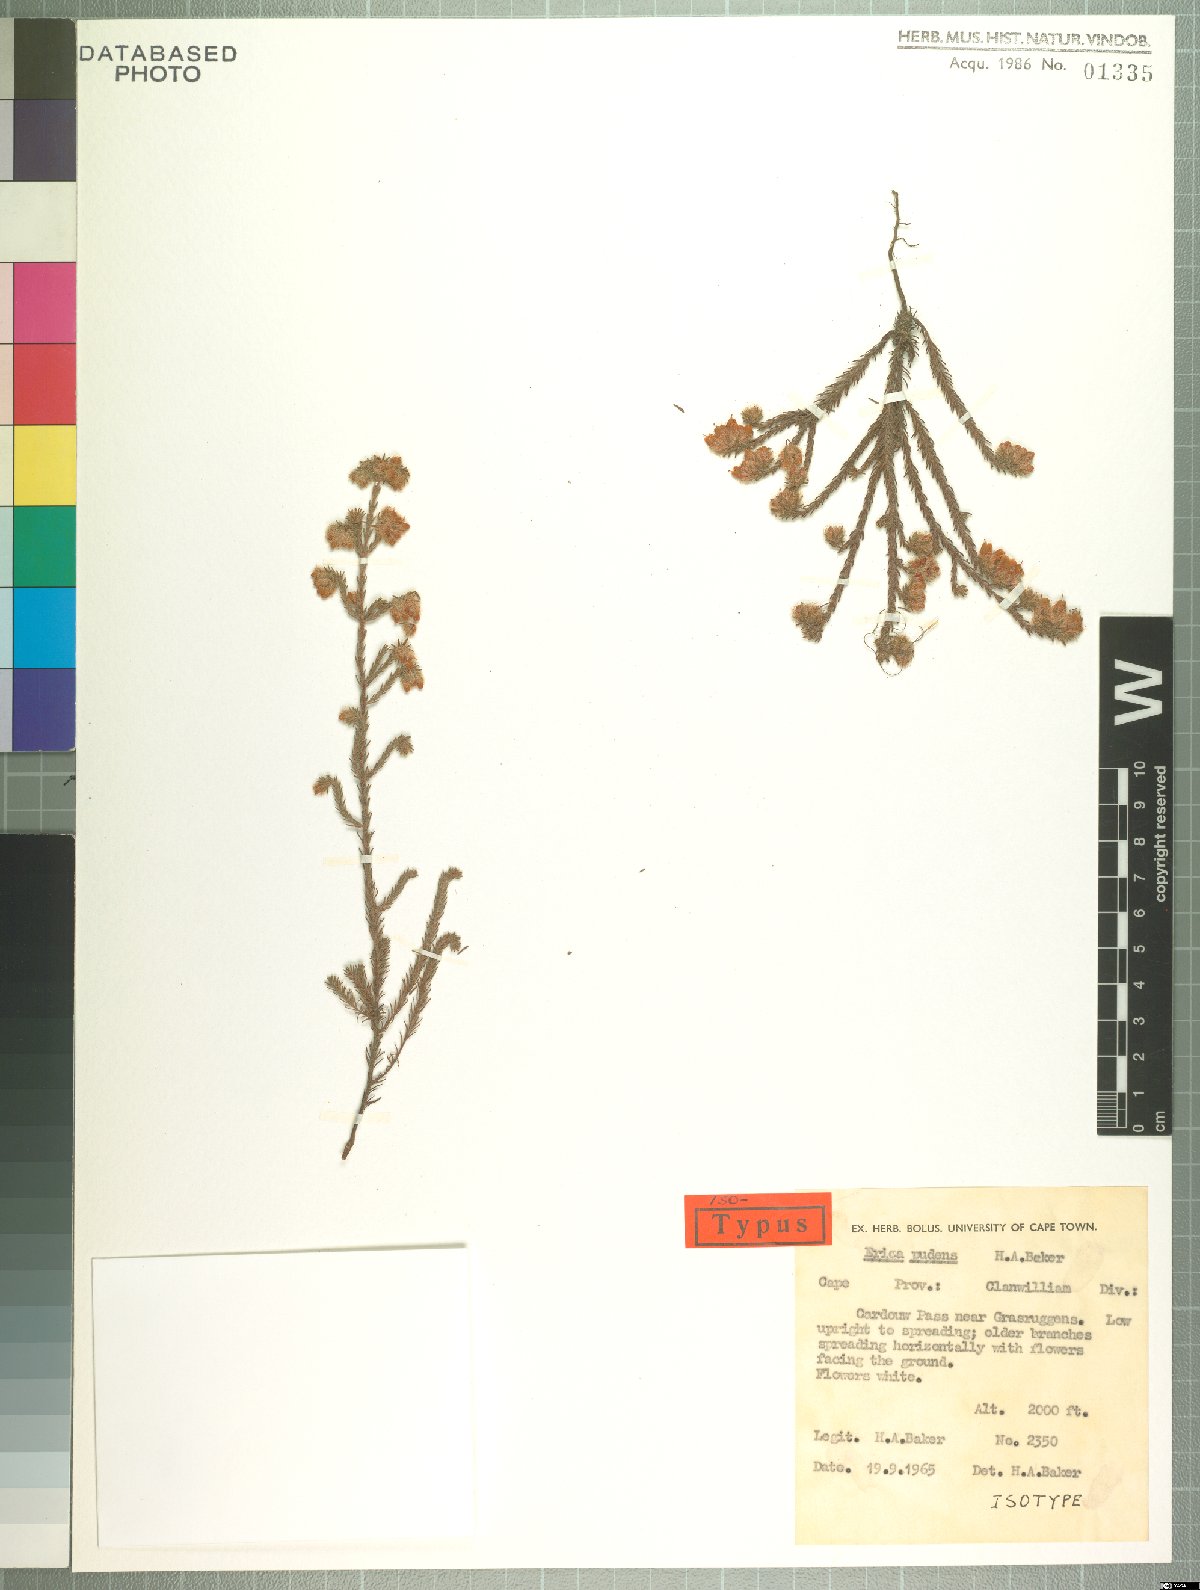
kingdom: Plantae
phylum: Tracheophyta
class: Magnoliopsida
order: Ericales
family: Ericaceae
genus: Erica
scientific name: Erica pudens
